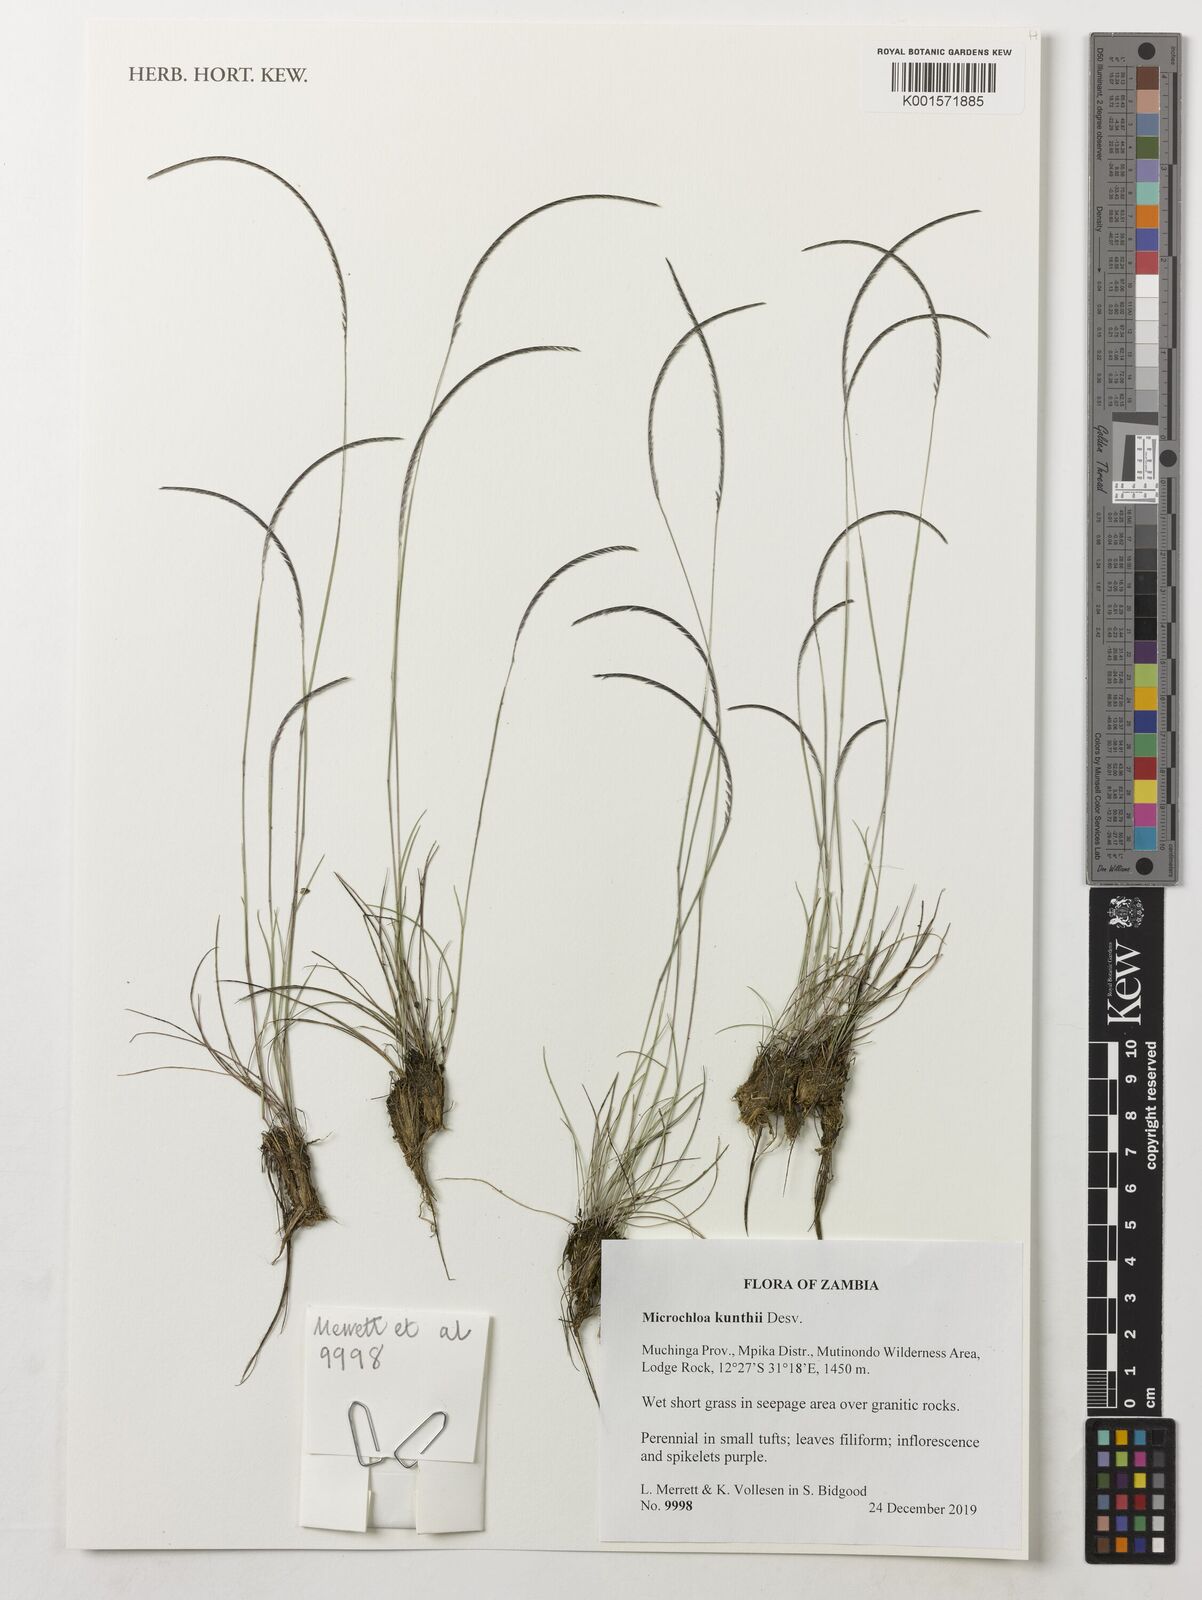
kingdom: Plantae
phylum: Tracheophyta
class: Liliopsida
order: Poales
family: Poaceae
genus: Microchloa
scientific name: Microchloa kunthii
